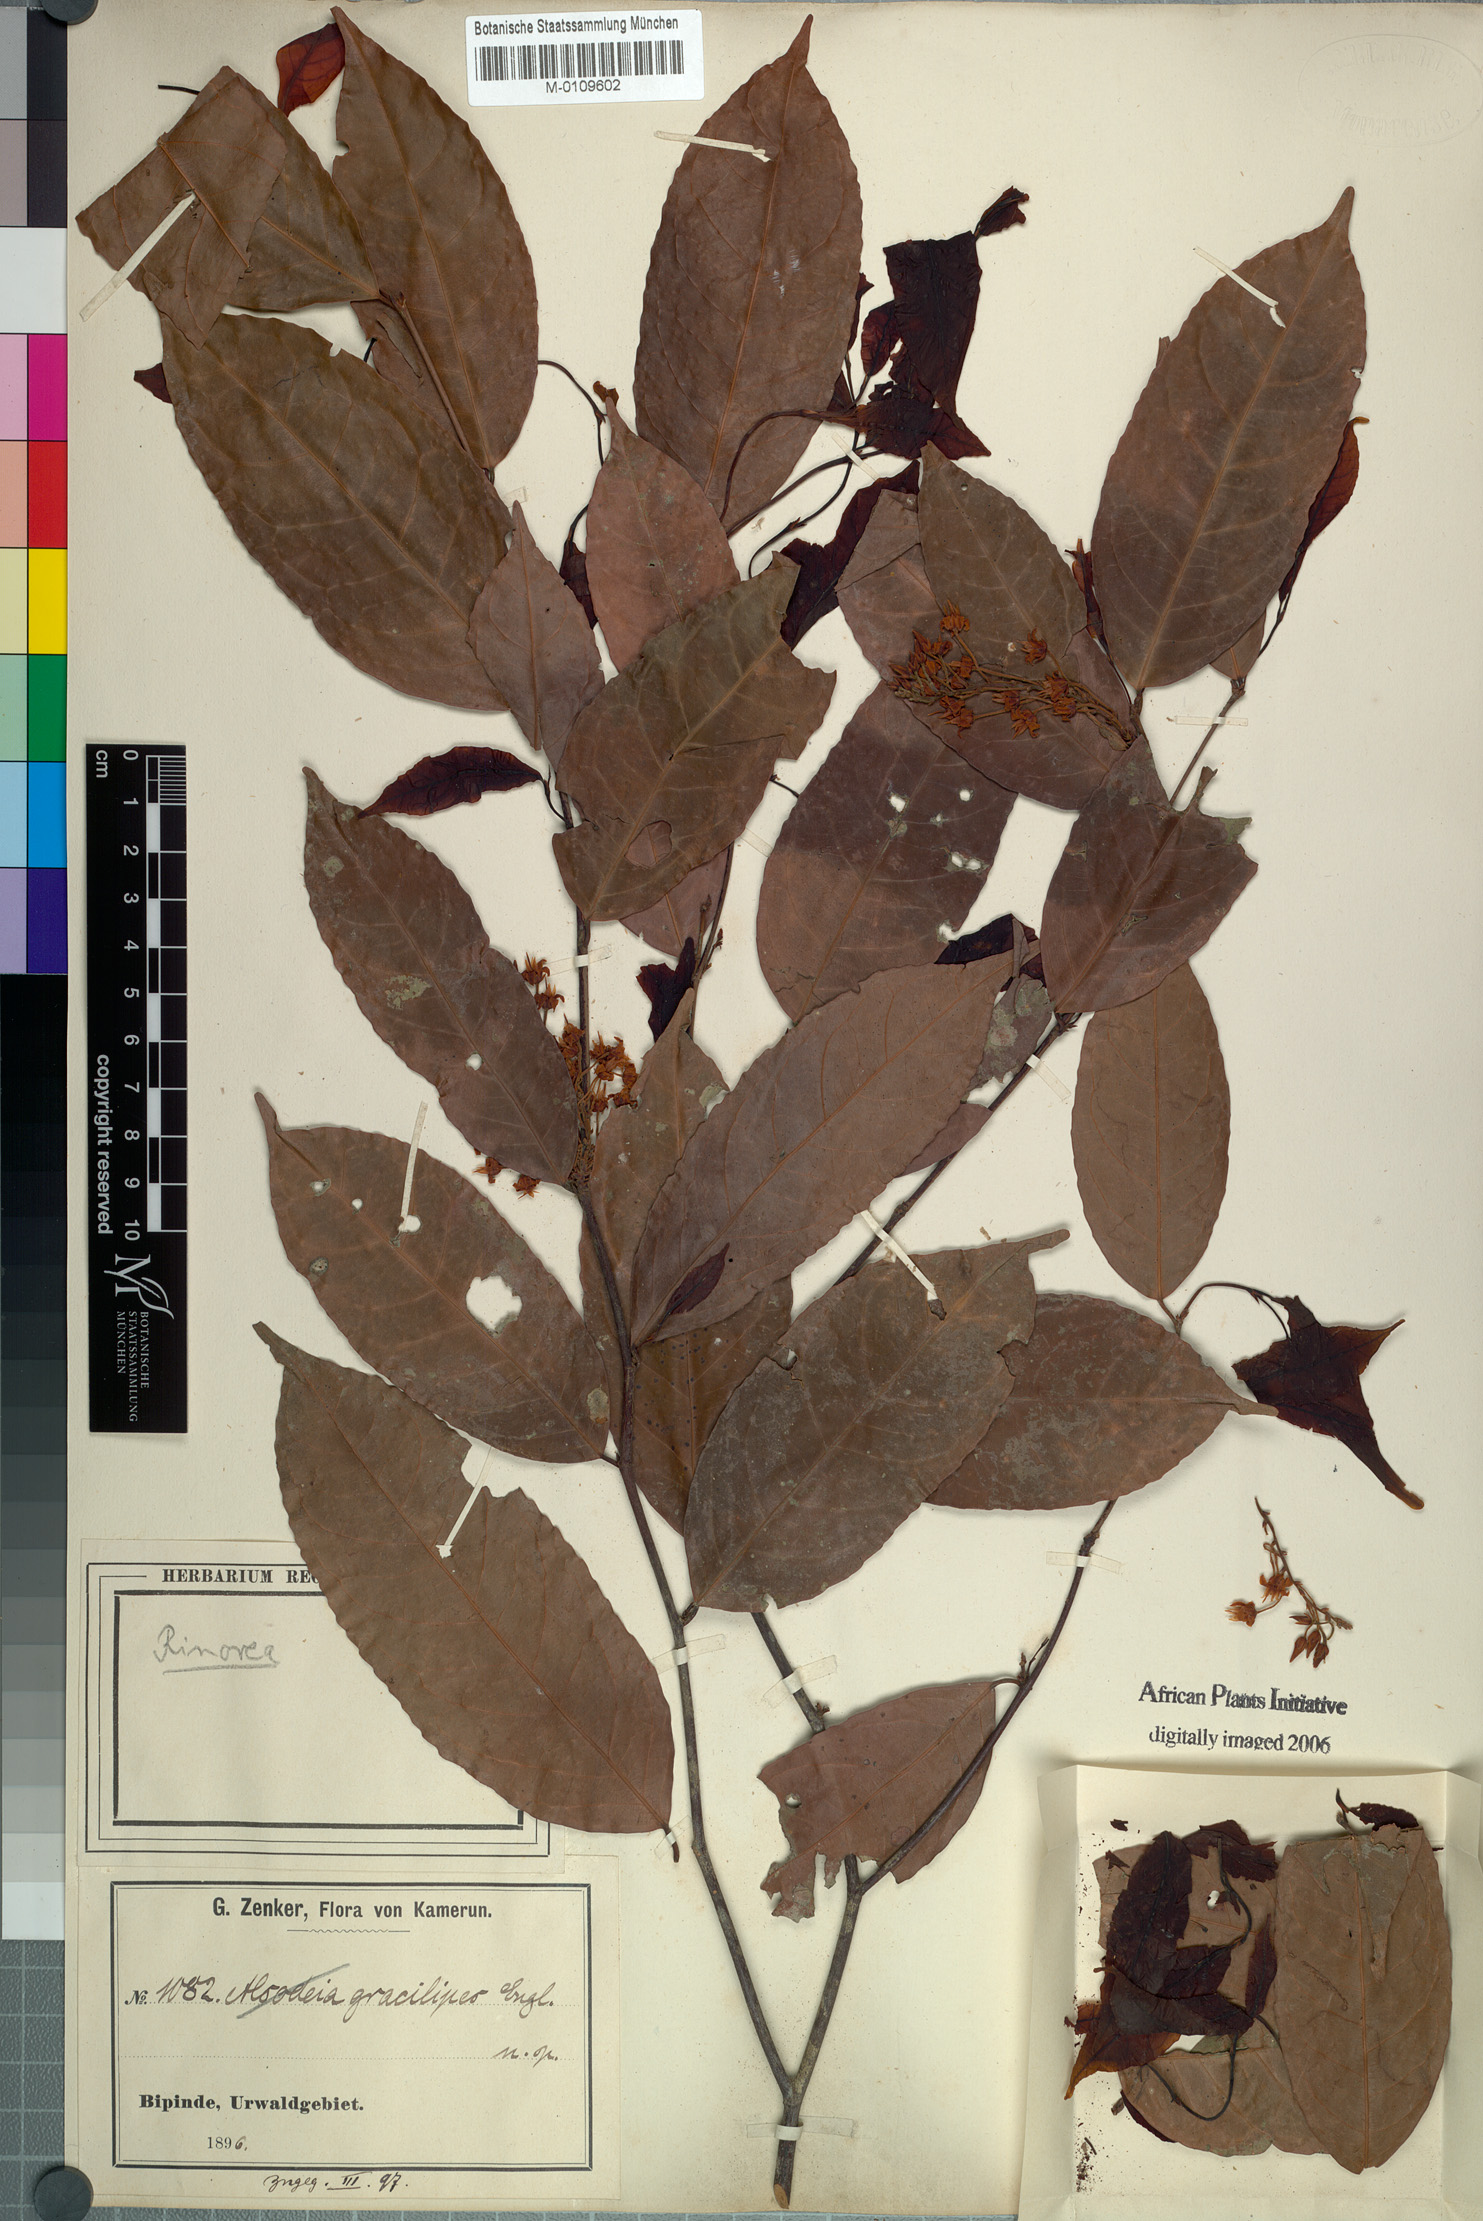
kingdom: Plantae
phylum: Tracheophyta
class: Magnoliopsida
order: Malpighiales
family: Violaceae
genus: Rinorea
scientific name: Rinorea angustifolia
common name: White violet-bush
